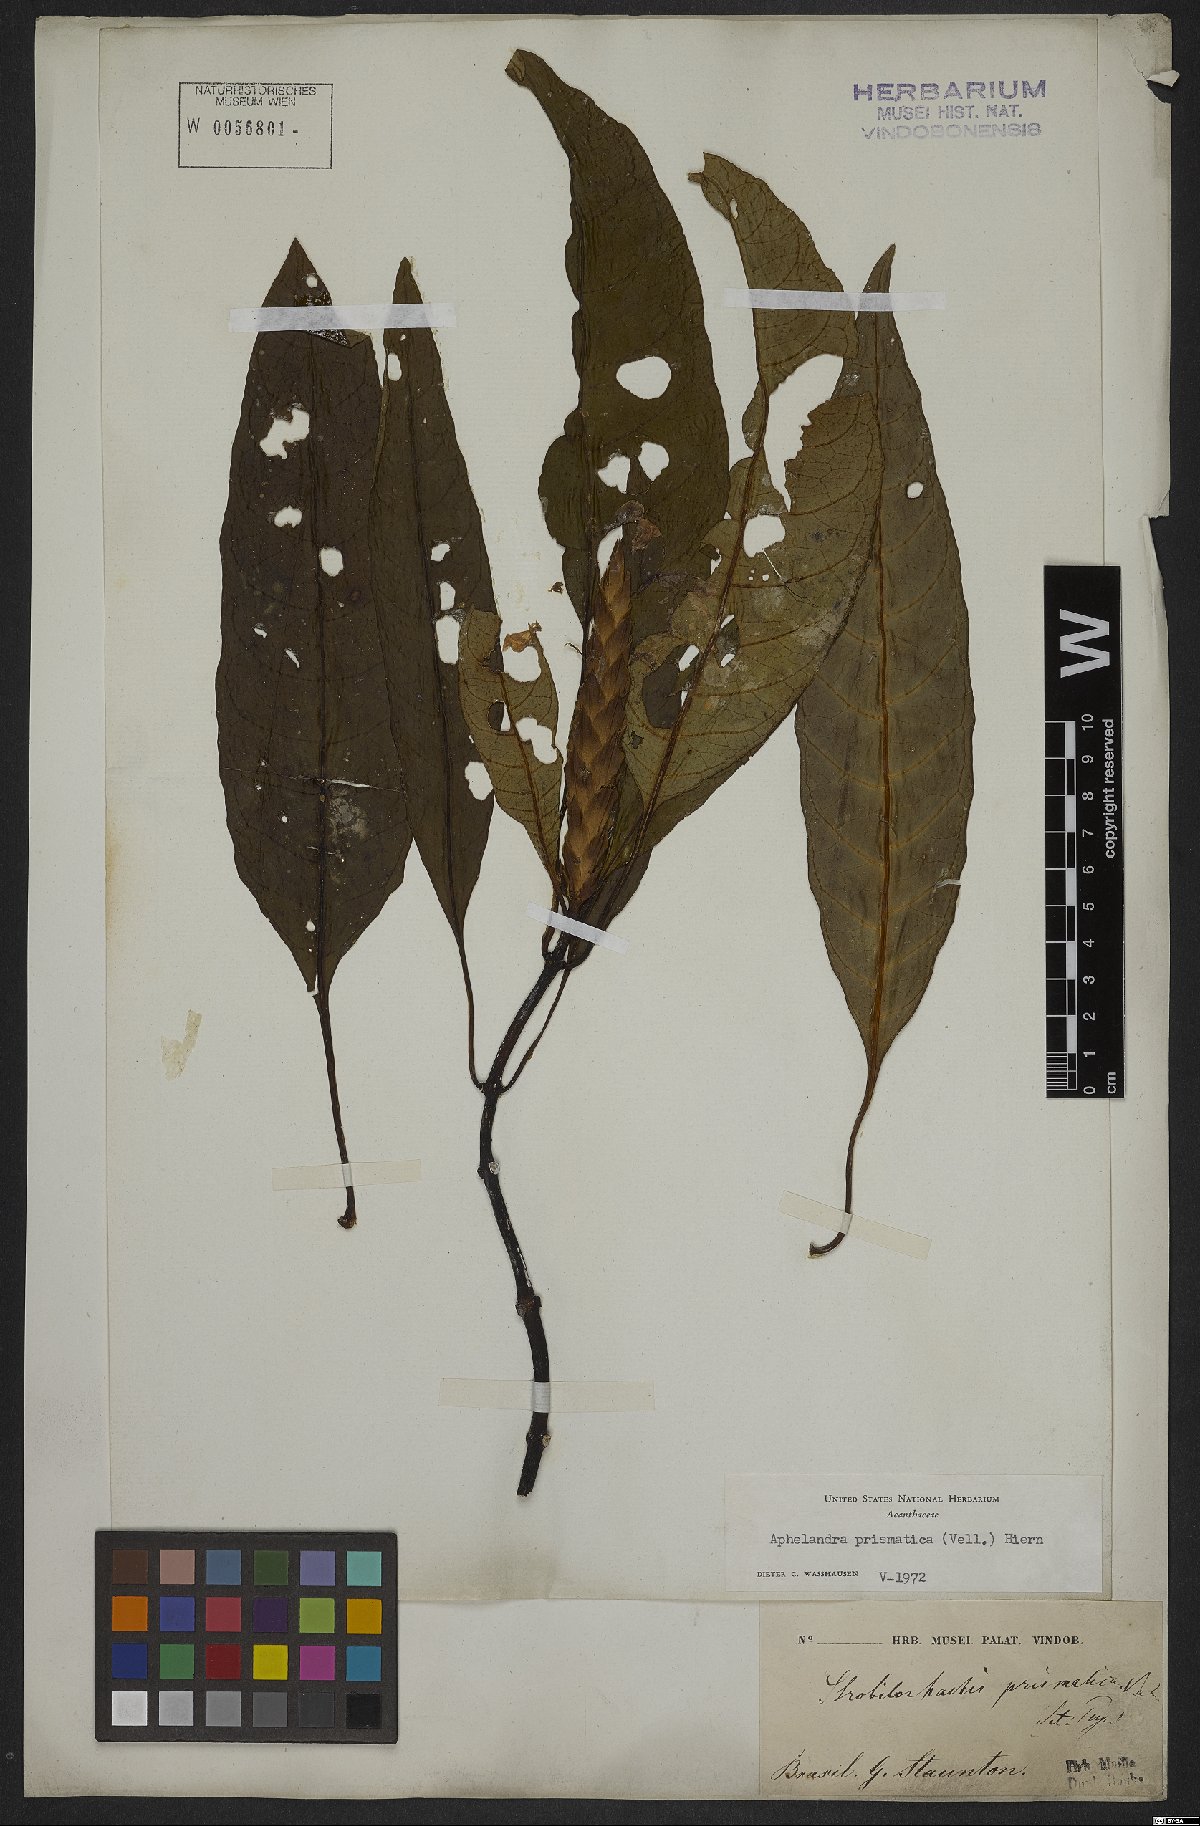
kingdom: Plantae
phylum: Tracheophyta
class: Magnoliopsida
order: Lamiales
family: Acanthaceae
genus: Aphelandra
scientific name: Aphelandra prismatica
